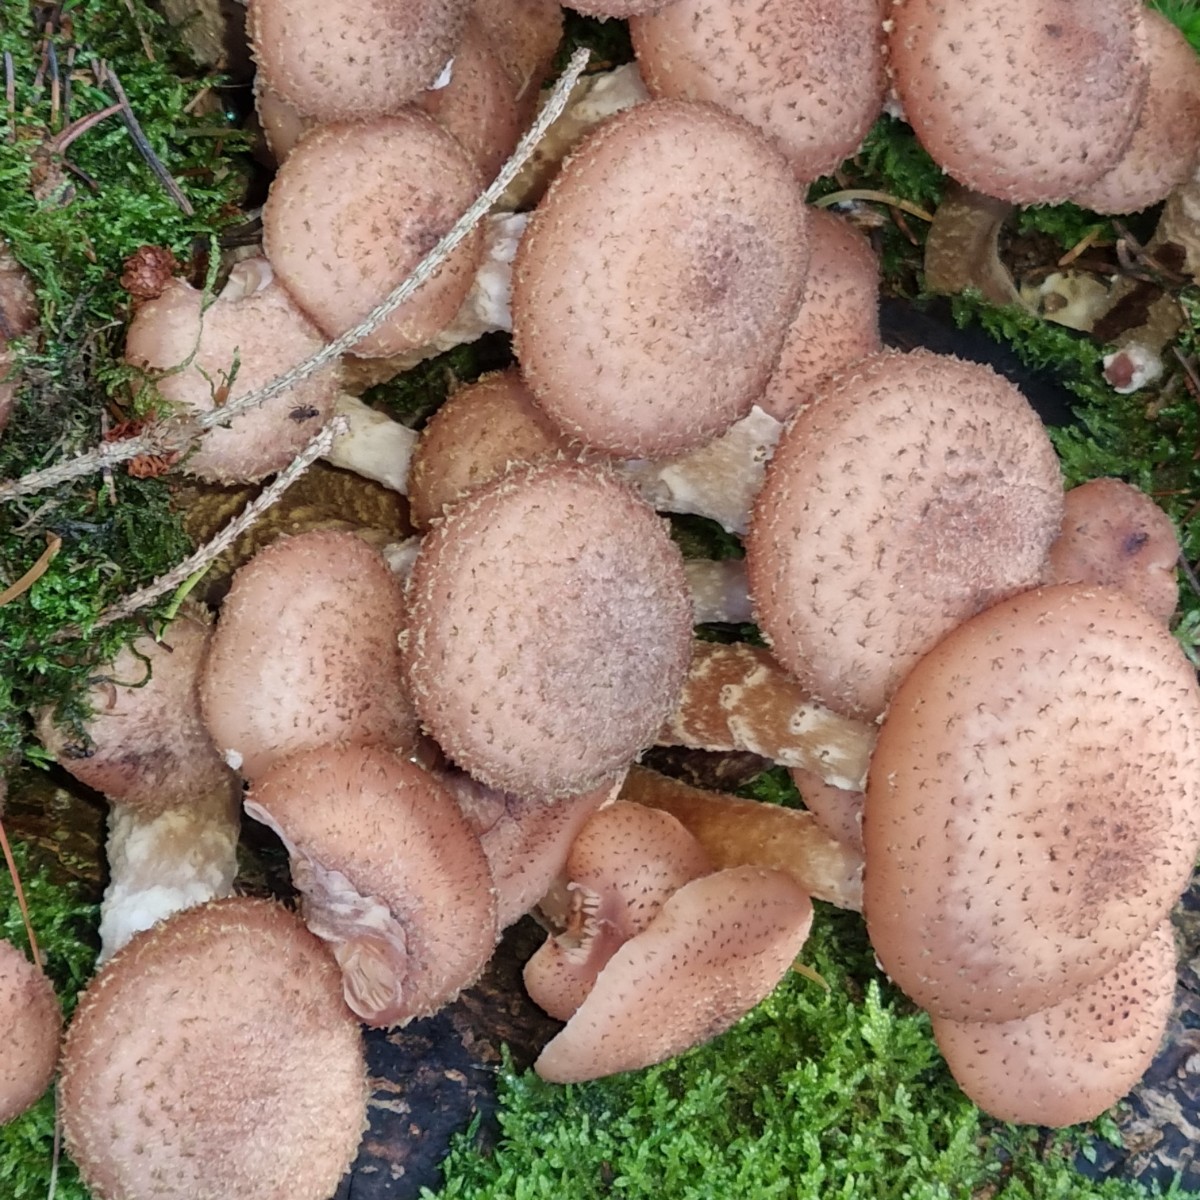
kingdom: Fungi
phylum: Basidiomycota
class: Agaricomycetes
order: Agaricales
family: Physalacriaceae
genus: Armillaria
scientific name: Armillaria
